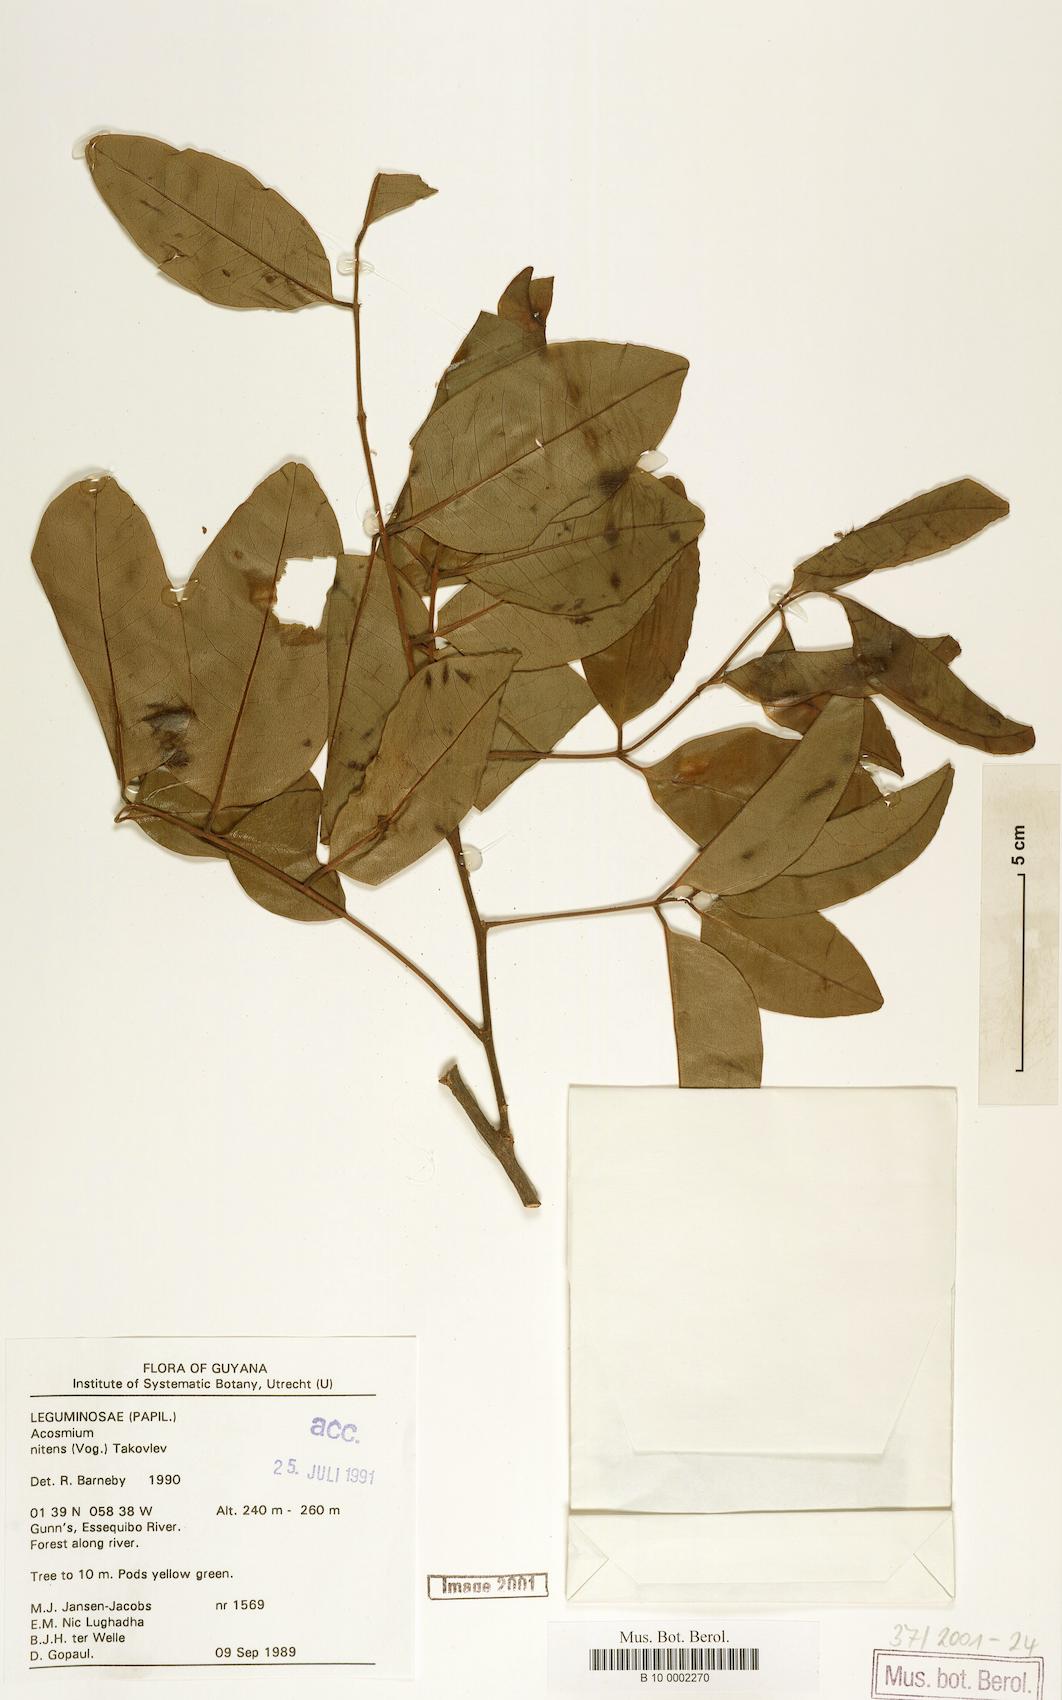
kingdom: Plantae
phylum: Tracheophyta
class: Magnoliopsida
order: Fabales
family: Fabaceae
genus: Leptolobium
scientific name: Leptolobium nitens
